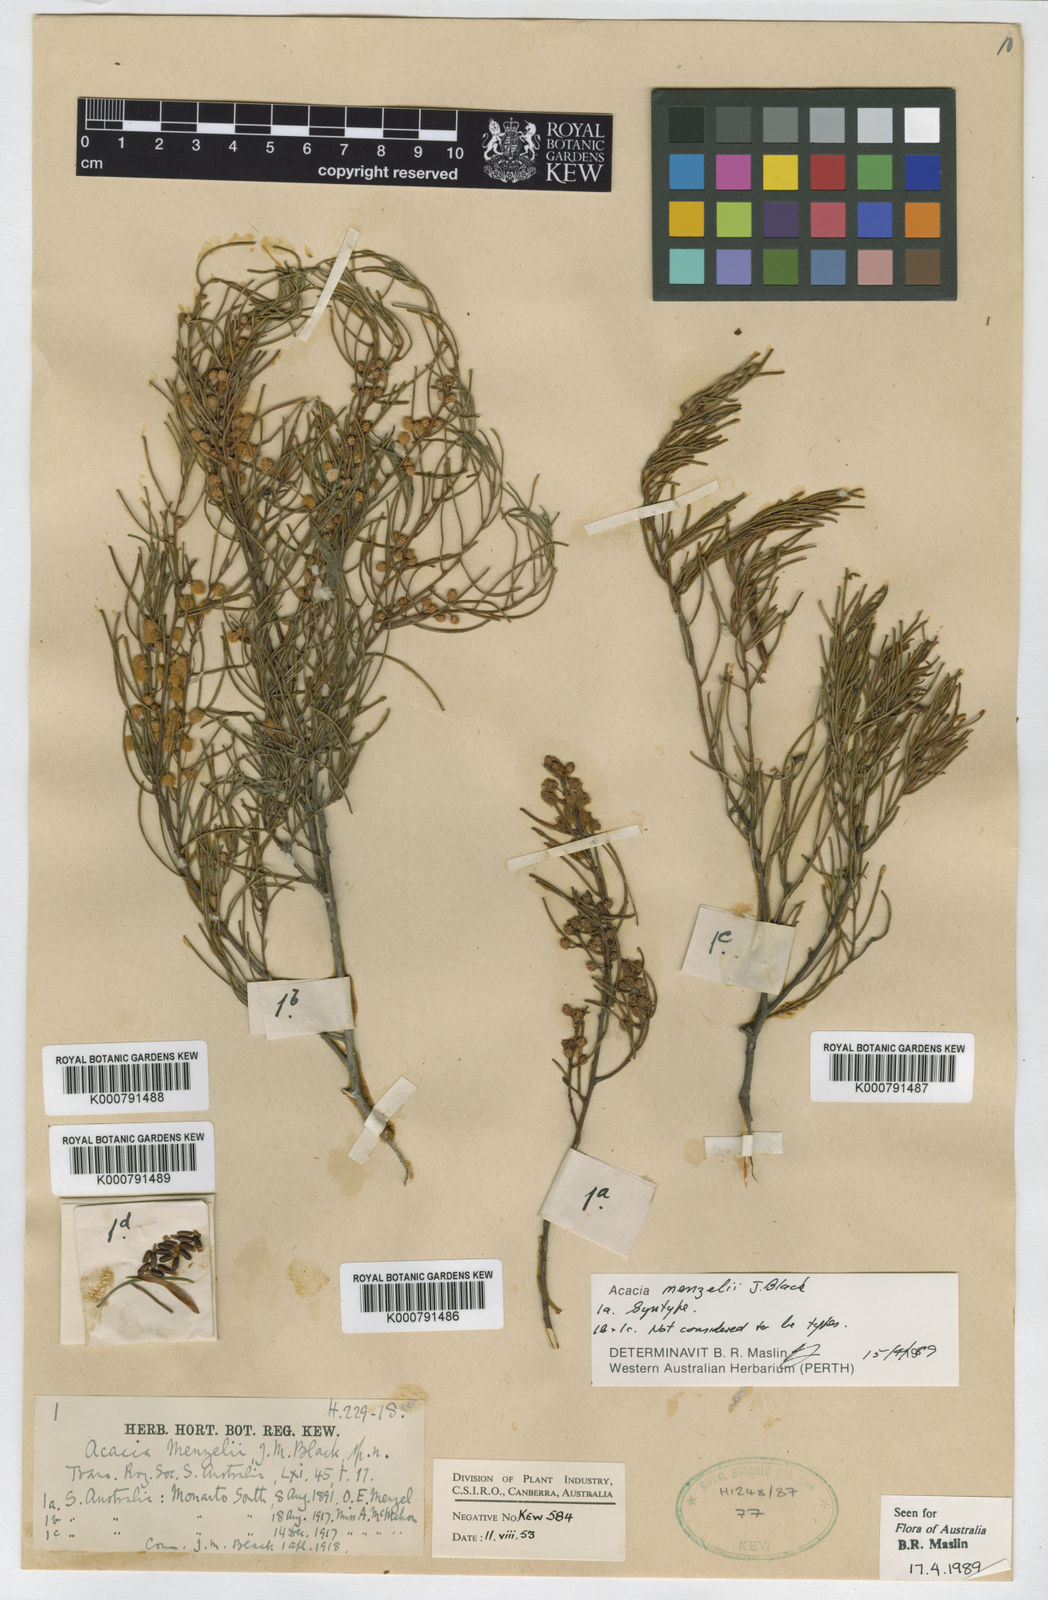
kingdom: Plantae
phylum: Tracheophyta
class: Magnoliopsida
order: Fabales
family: Fabaceae
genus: Acacia
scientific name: Acacia menzelii
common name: Tallebung wattle
